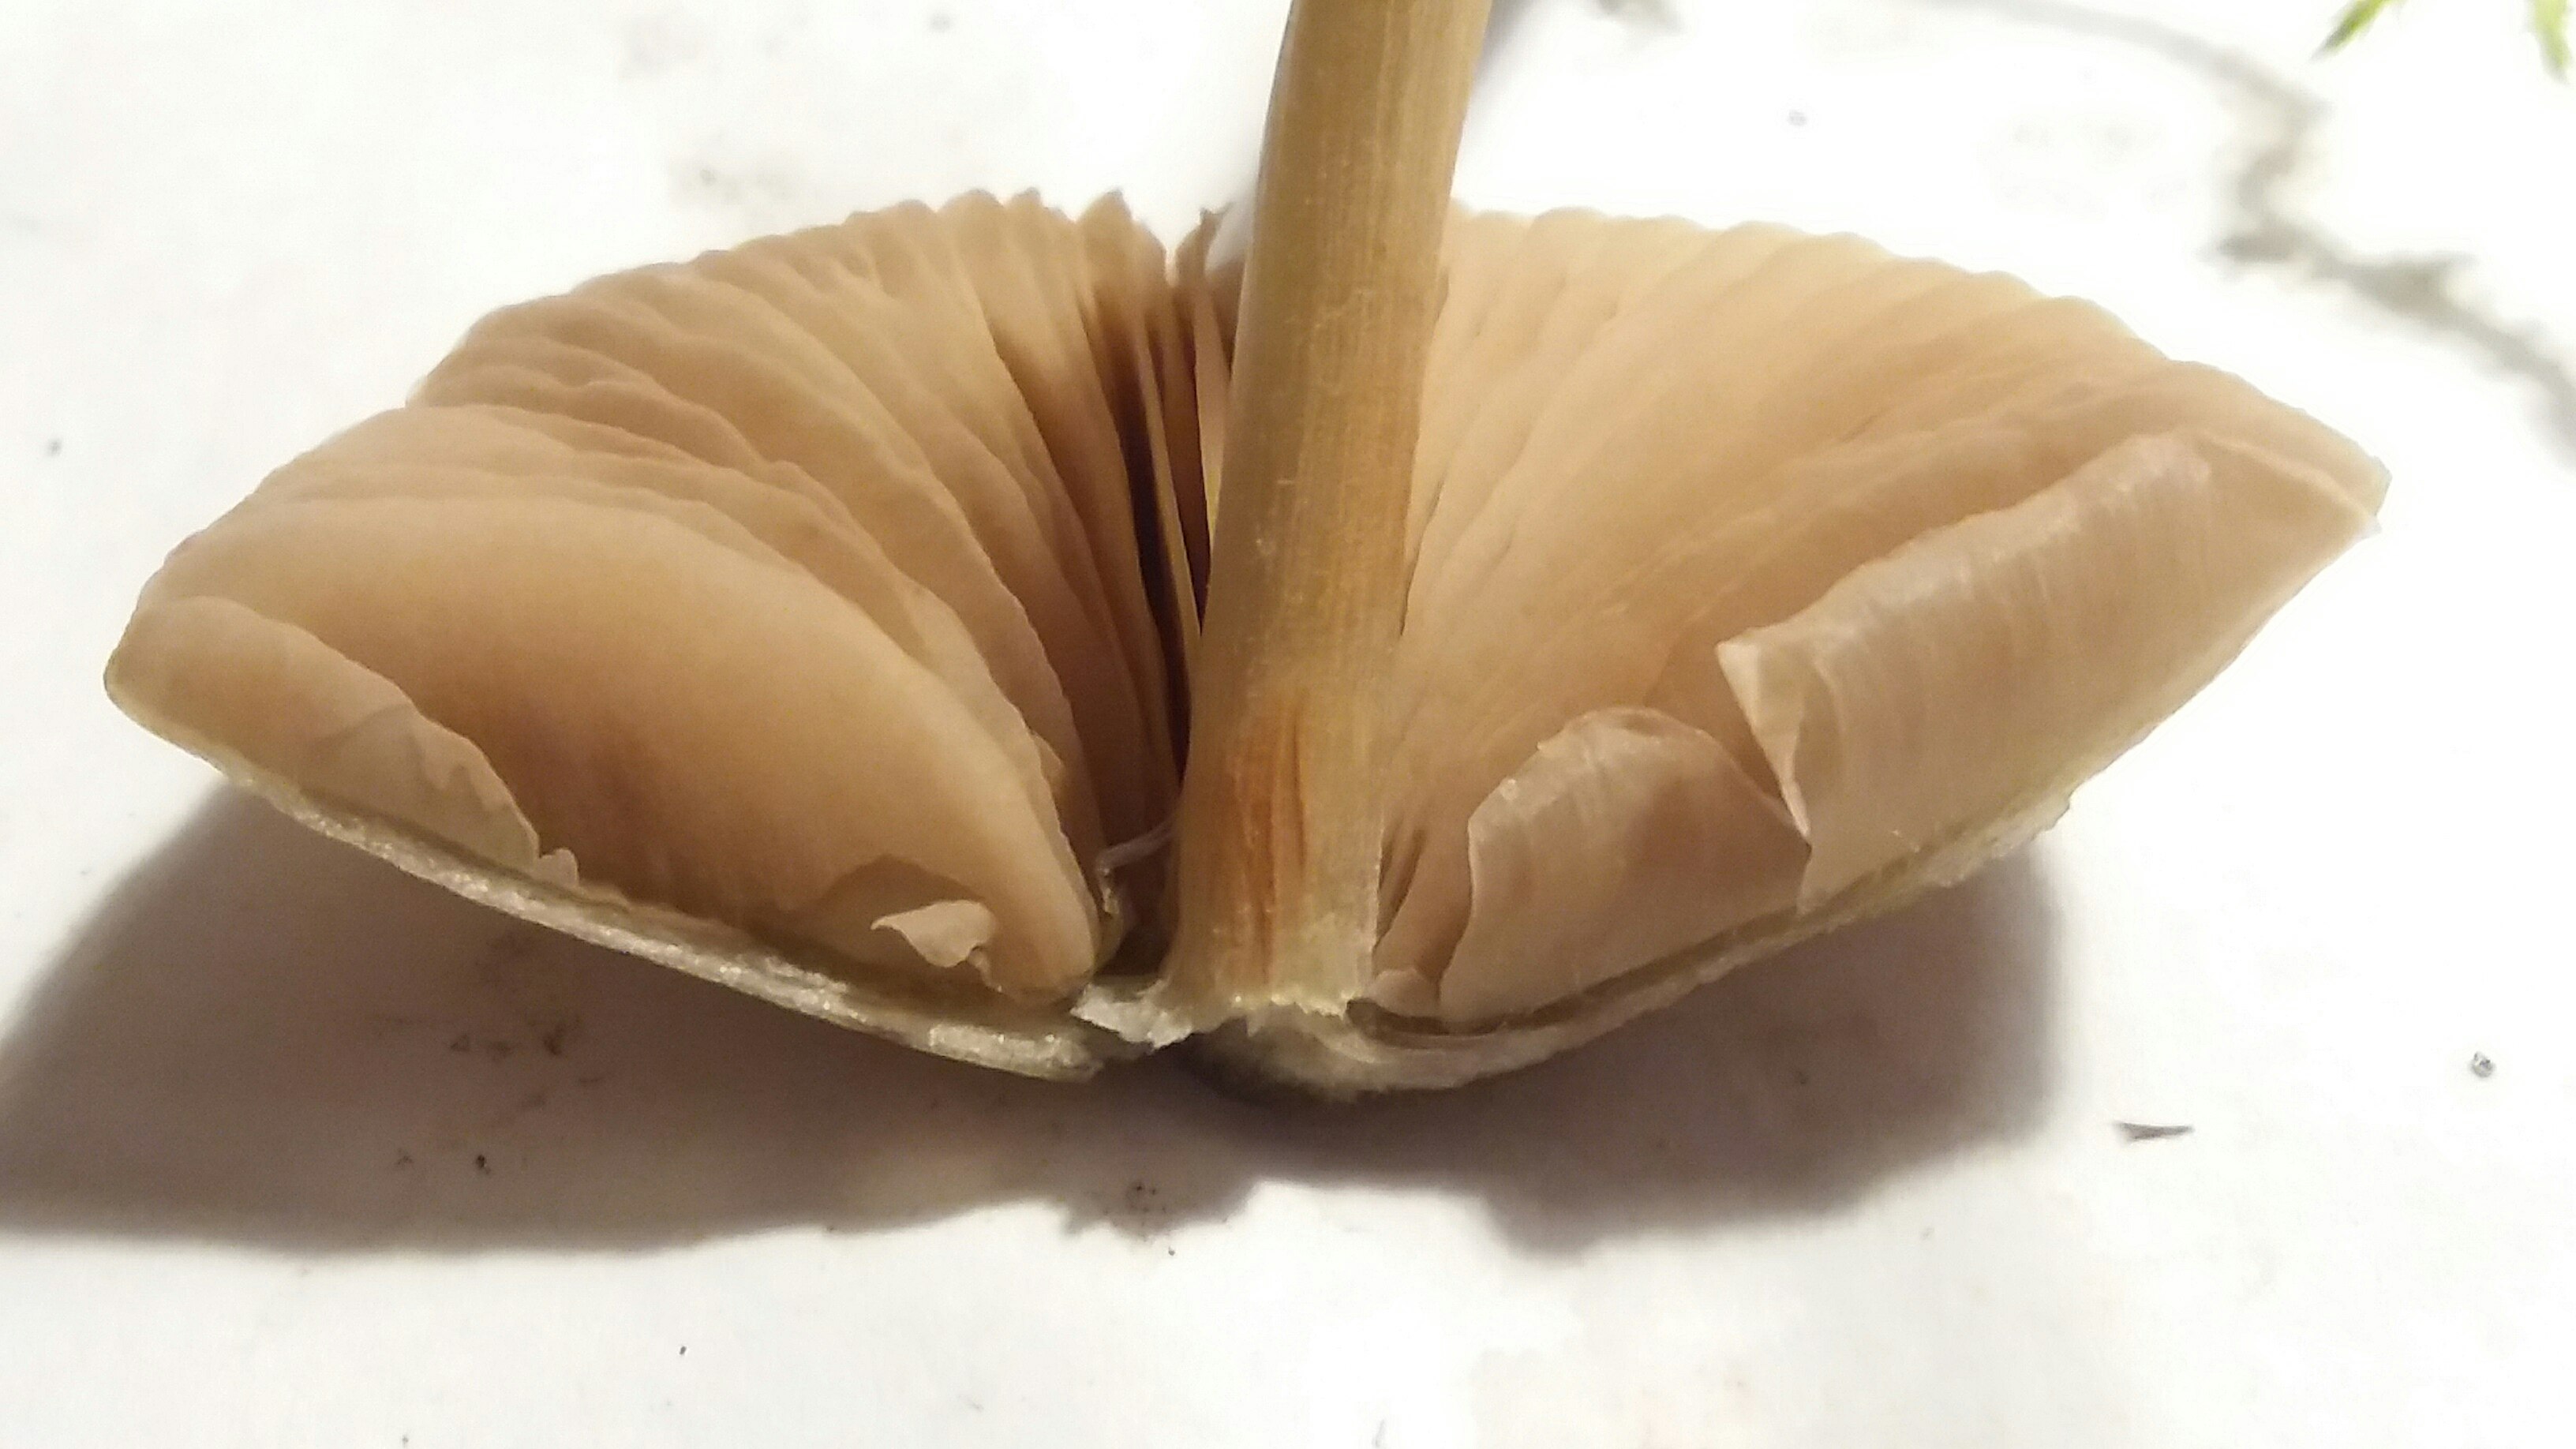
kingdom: Fungi
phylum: Basidiomycota
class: Agaricomycetes
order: Agaricales
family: Entolomataceae
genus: Entoloma
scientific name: Entoloma
